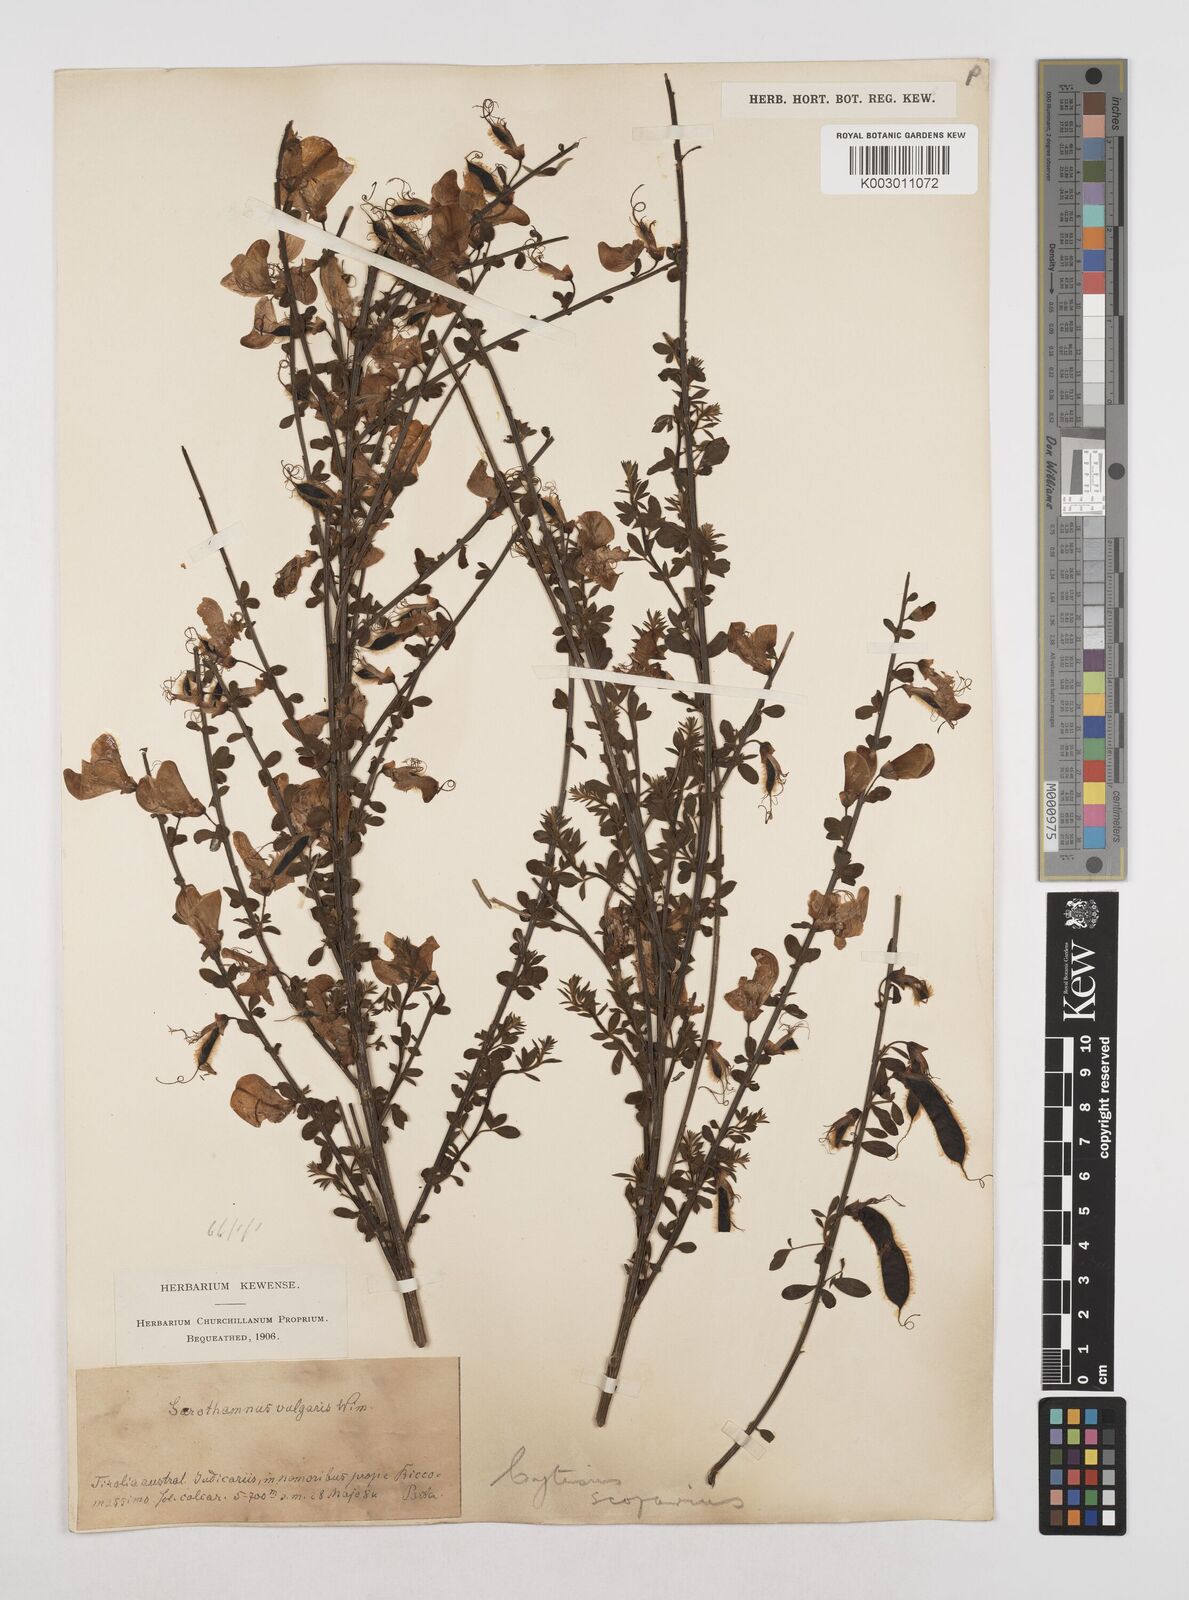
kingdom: Plantae
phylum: Tracheophyta
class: Magnoliopsida
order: Fabales
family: Fabaceae
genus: Cytisus
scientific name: Cytisus scoparius
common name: Scotch broom
